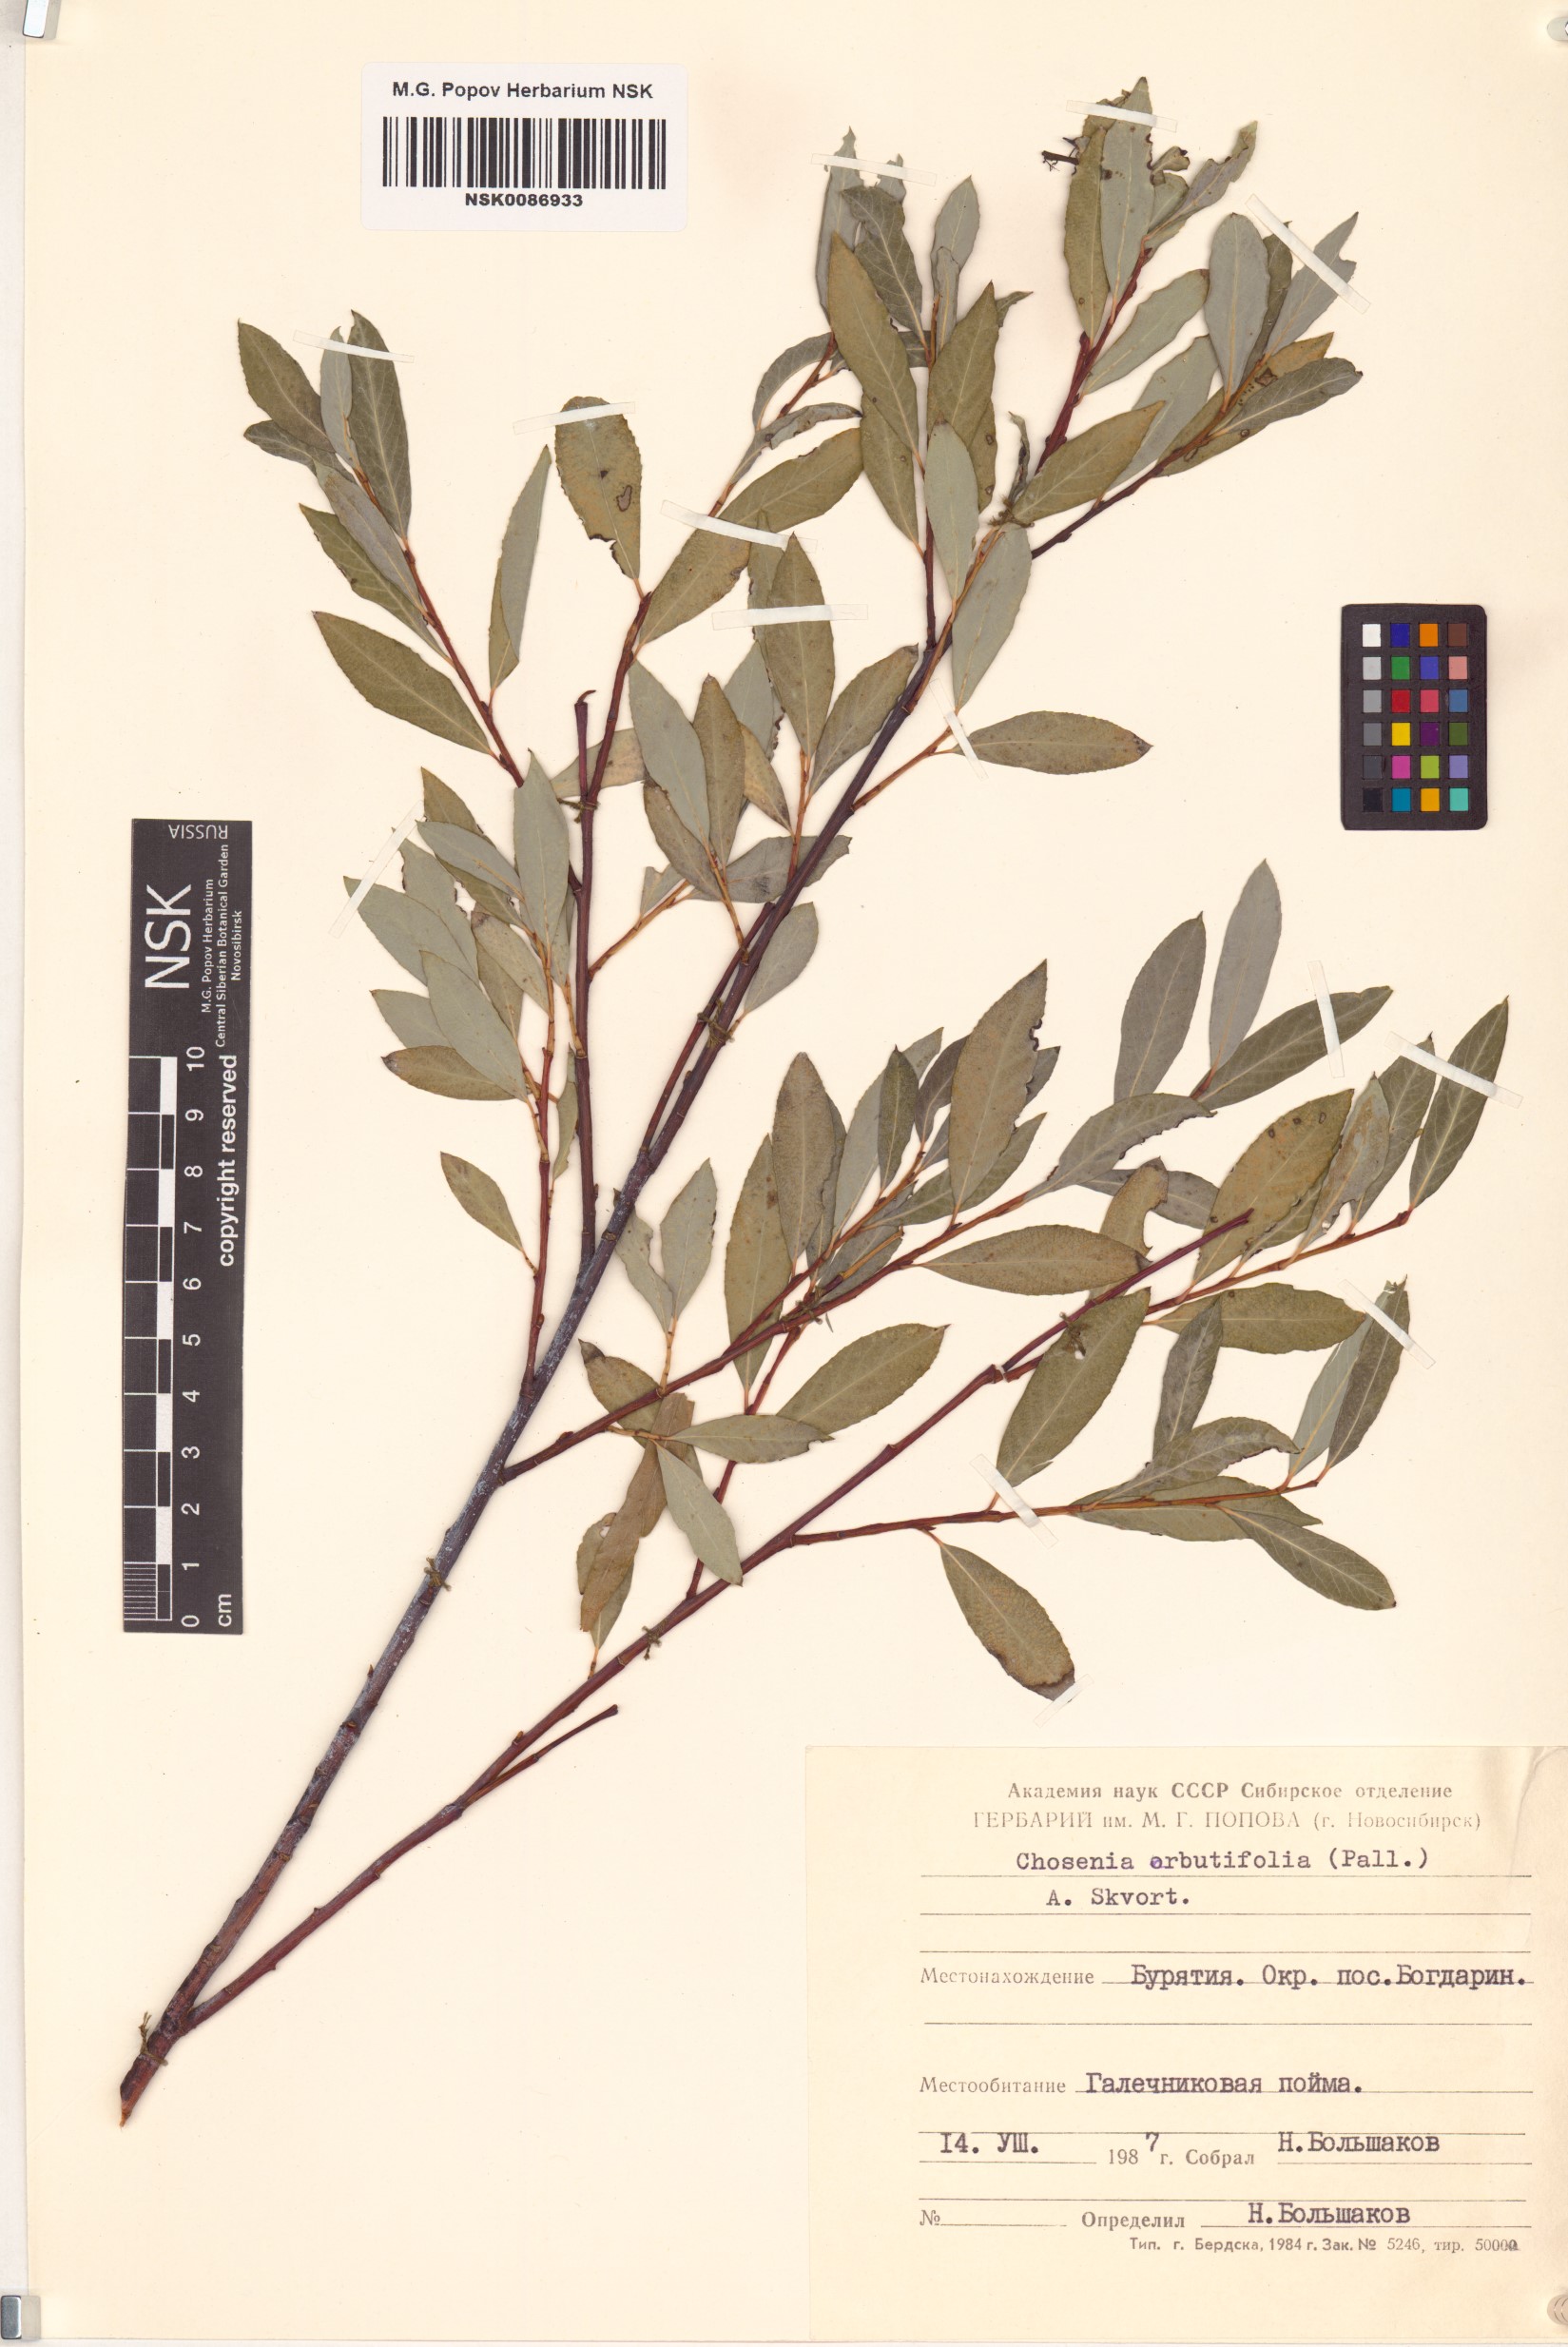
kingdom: Plantae
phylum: Tracheophyta
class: Magnoliopsida
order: Malpighiales
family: Salicaceae
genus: Chosenia
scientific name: Chosenia arbutifolia
